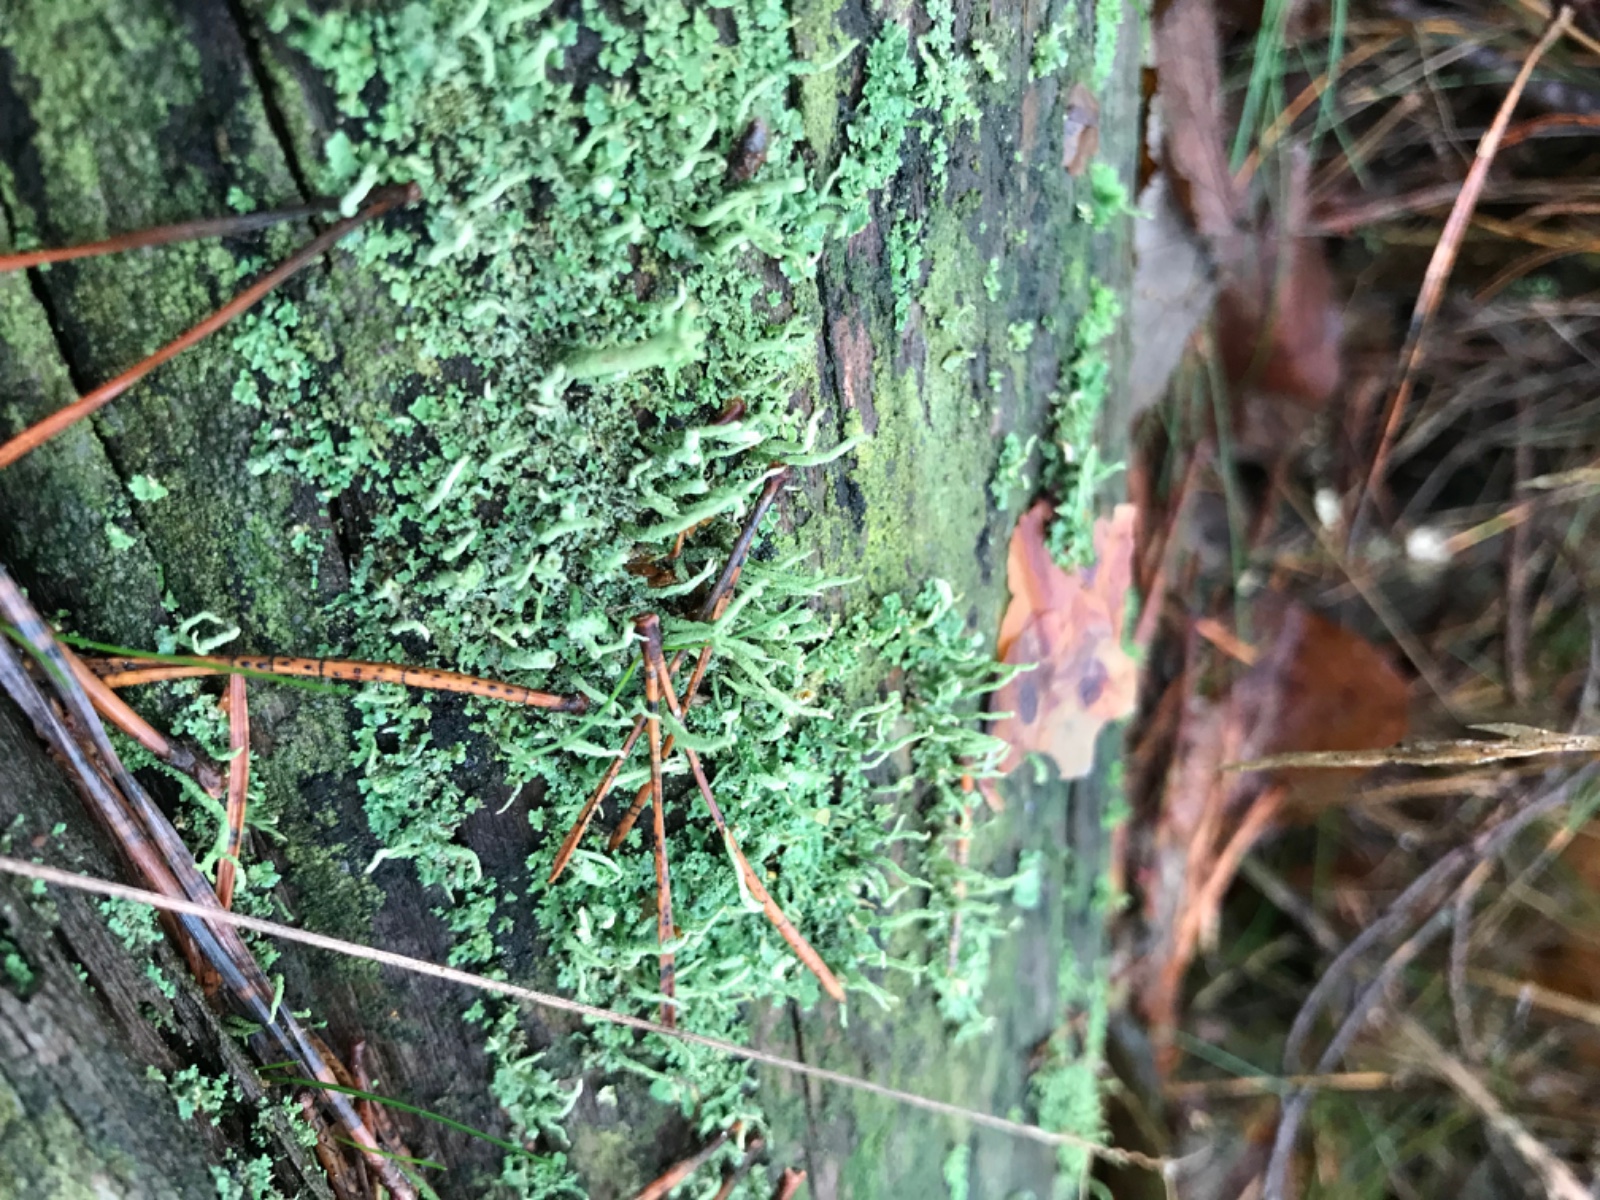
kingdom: Fungi
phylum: Ascomycota
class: Lecanoromycetes
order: Lecanorales
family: Cladoniaceae
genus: Cladonia
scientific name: Cladonia coniocraea
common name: træfods-bægerlav
